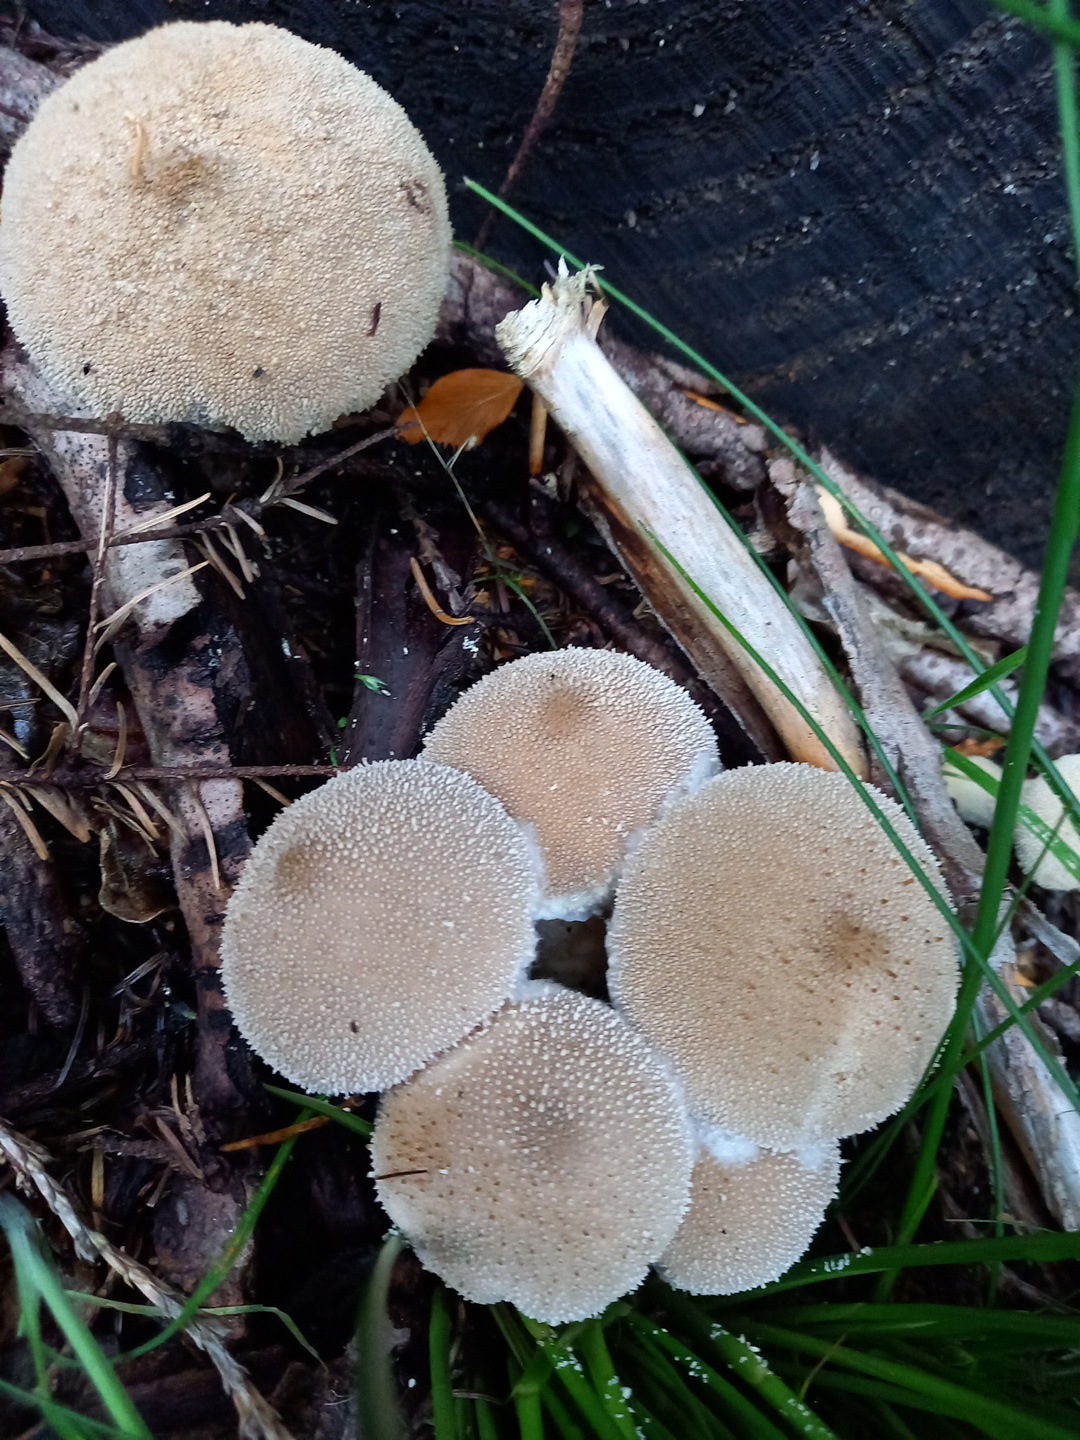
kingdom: Fungi
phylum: Basidiomycota
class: Agaricomycetes
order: Agaricales
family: Lycoperdaceae
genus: Lycoperdon
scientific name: Lycoperdon perlatum
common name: krystal-støvbold
